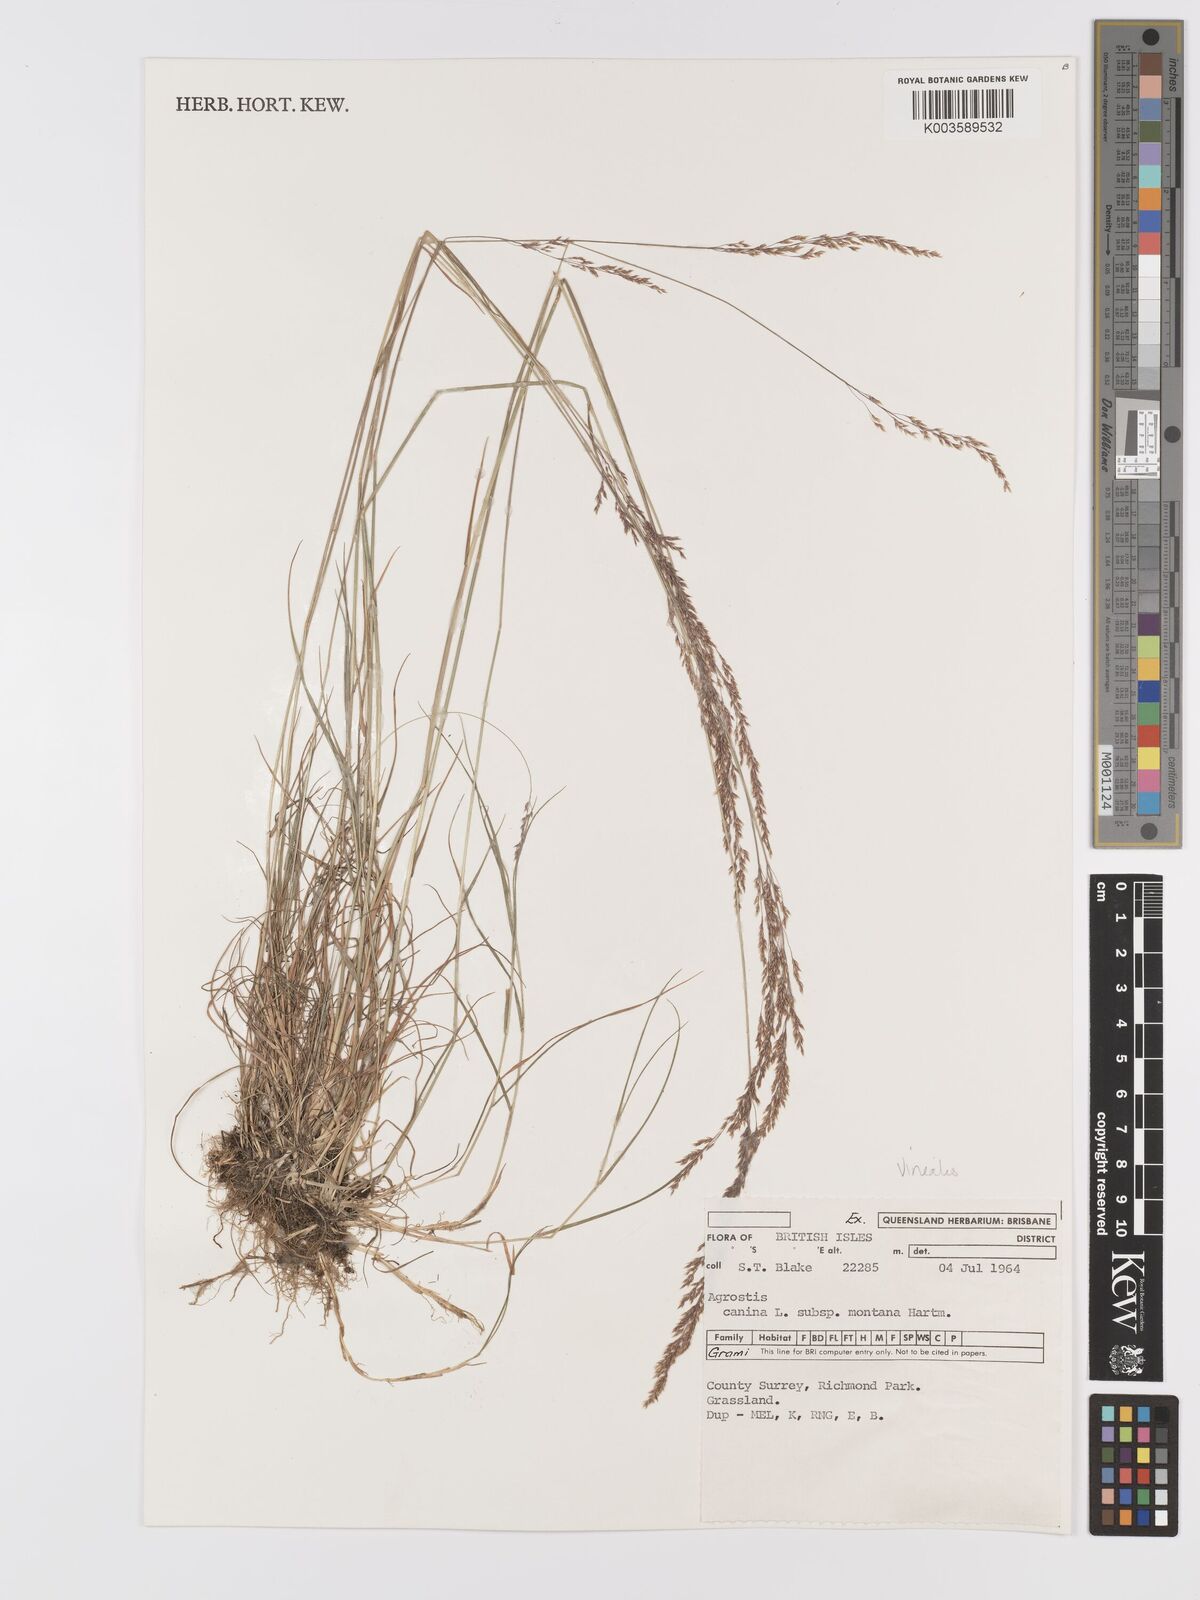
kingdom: Plantae
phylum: Tracheophyta
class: Liliopsida
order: Poales
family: Poaceae
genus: Agrostis
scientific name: Agrostis
